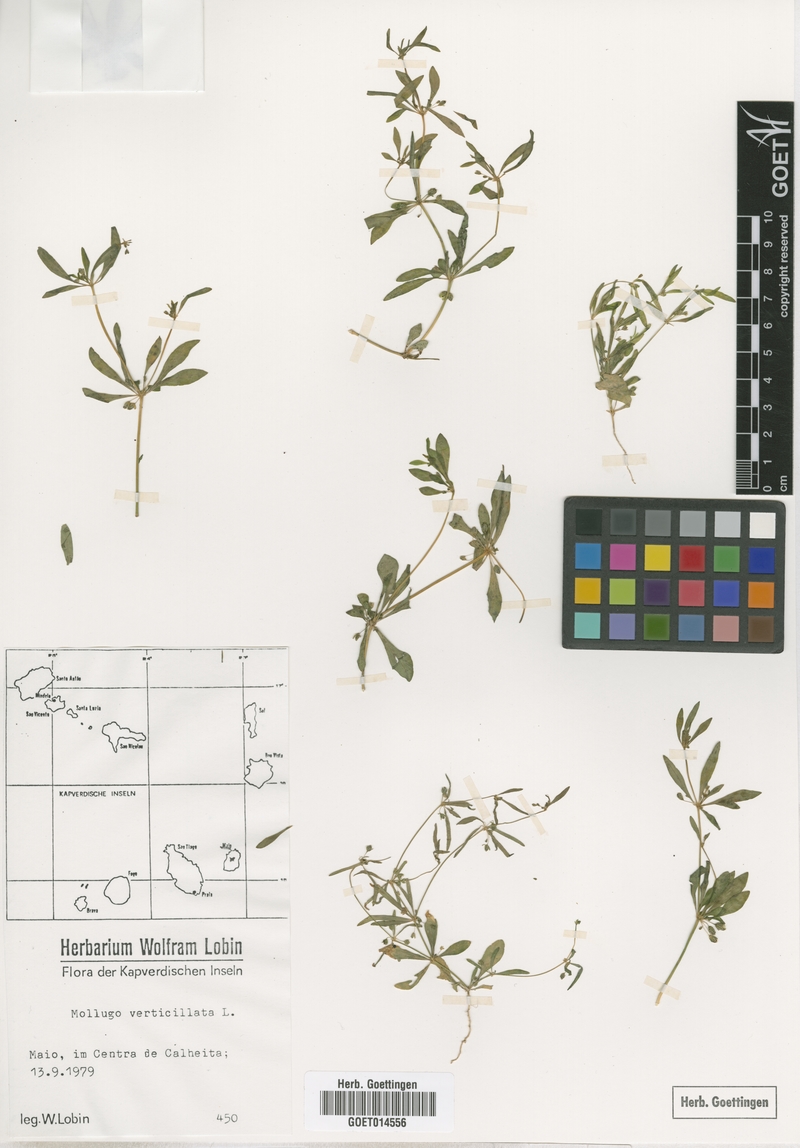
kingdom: Plantae
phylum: Tracheophyta
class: Magnoliopsida
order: Caryophyllales
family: Molluginaceae
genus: Mollugo
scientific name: Mollugo verticillata
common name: Green carpetweed
